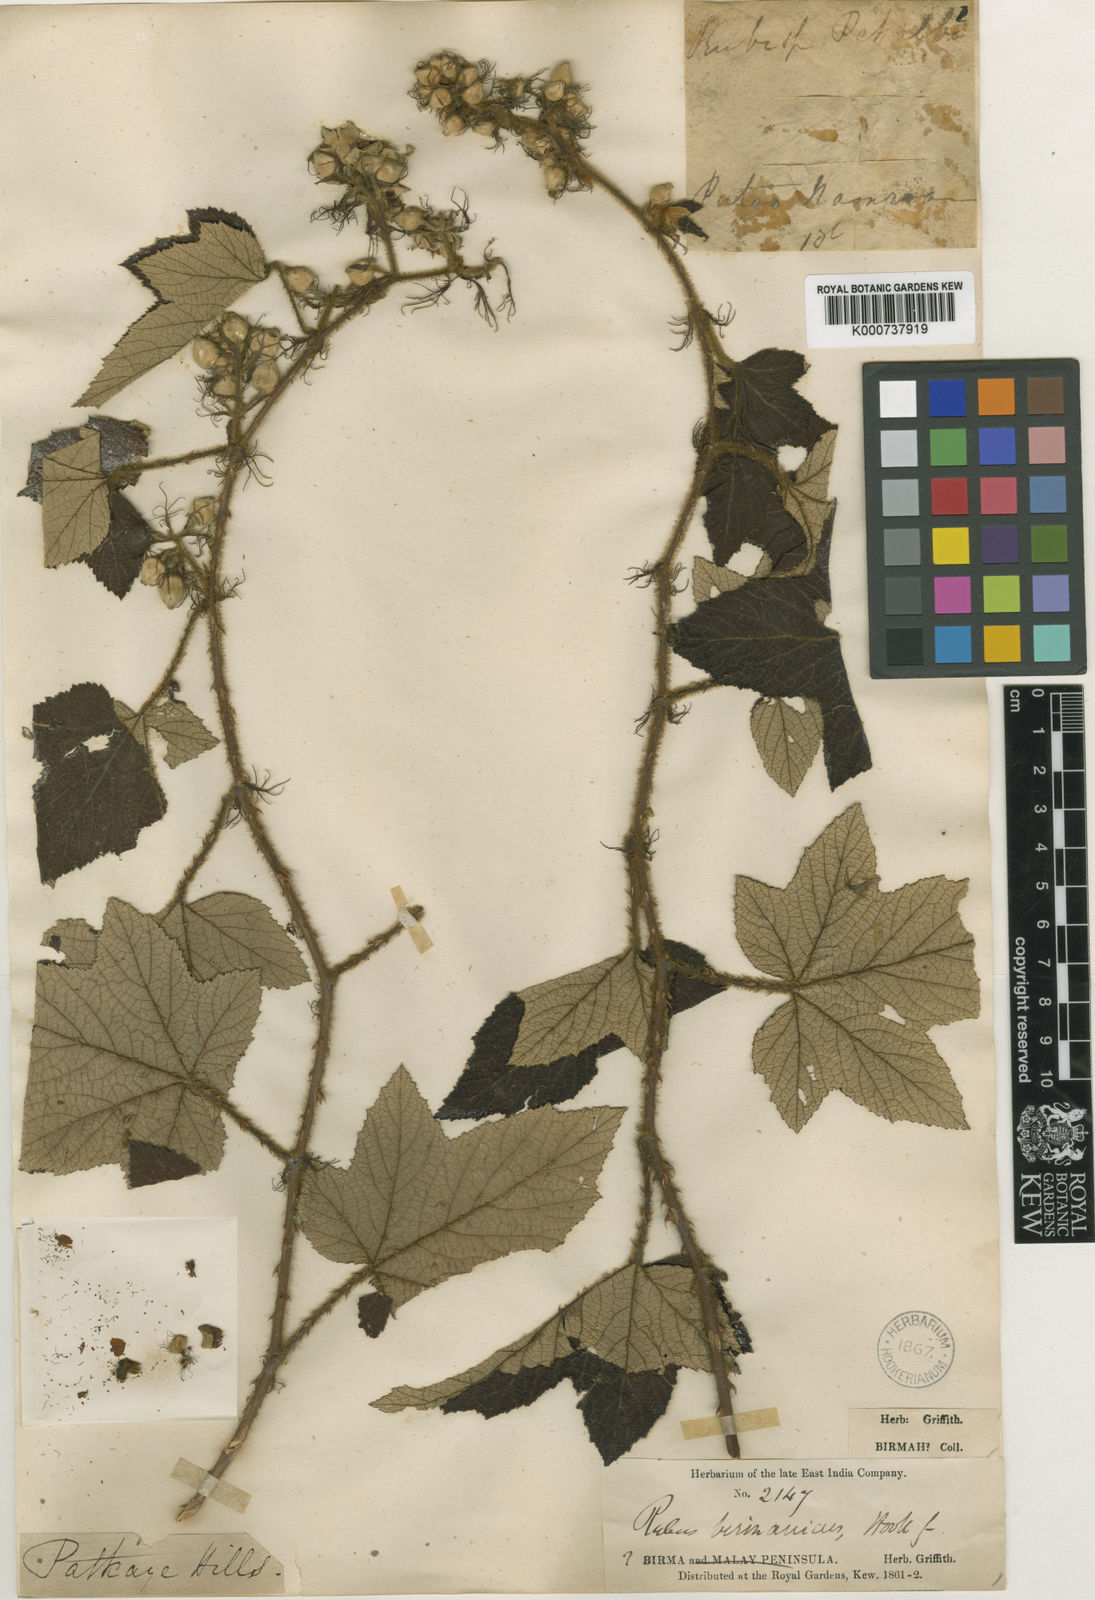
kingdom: Plantae
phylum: Tracheophyta
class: Magnoliopsida
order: Rosales
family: Rosaceae
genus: Rubus
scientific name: Rubus birmanicus
